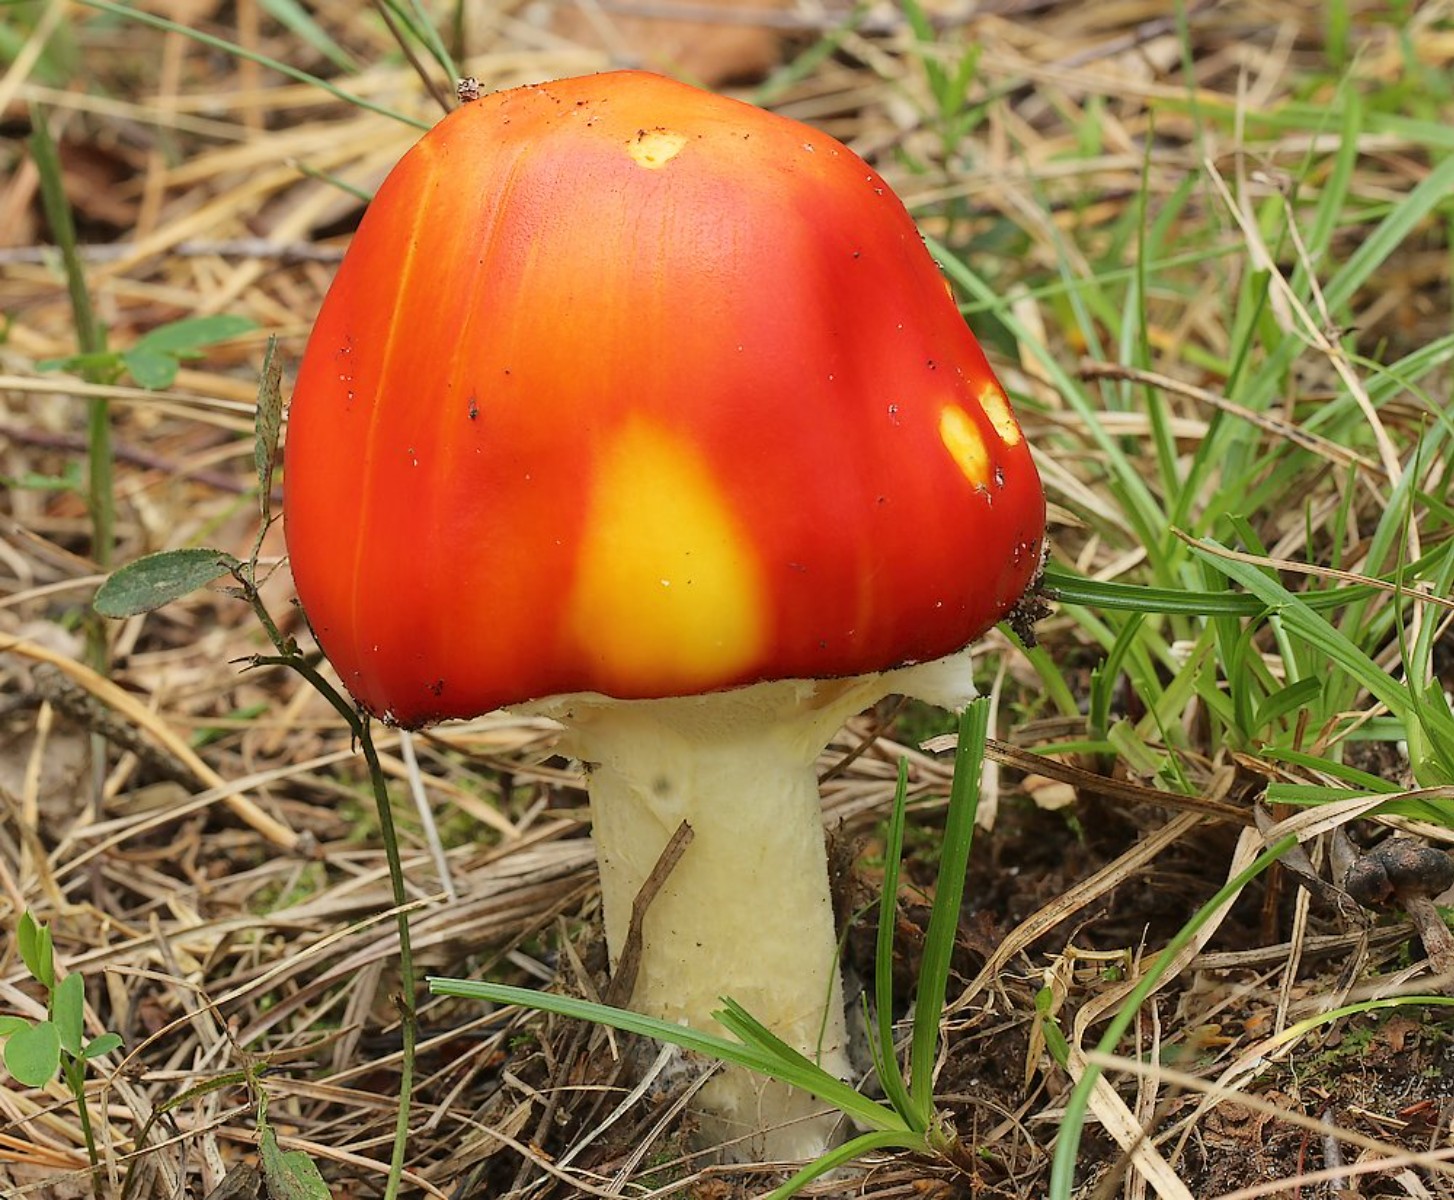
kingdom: Fungi
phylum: Basidiomycota
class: Agaricomycetes
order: Agaricales
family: Amanitaceae
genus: Amanita
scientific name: Amanita muscaria
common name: rød fluesvamp
